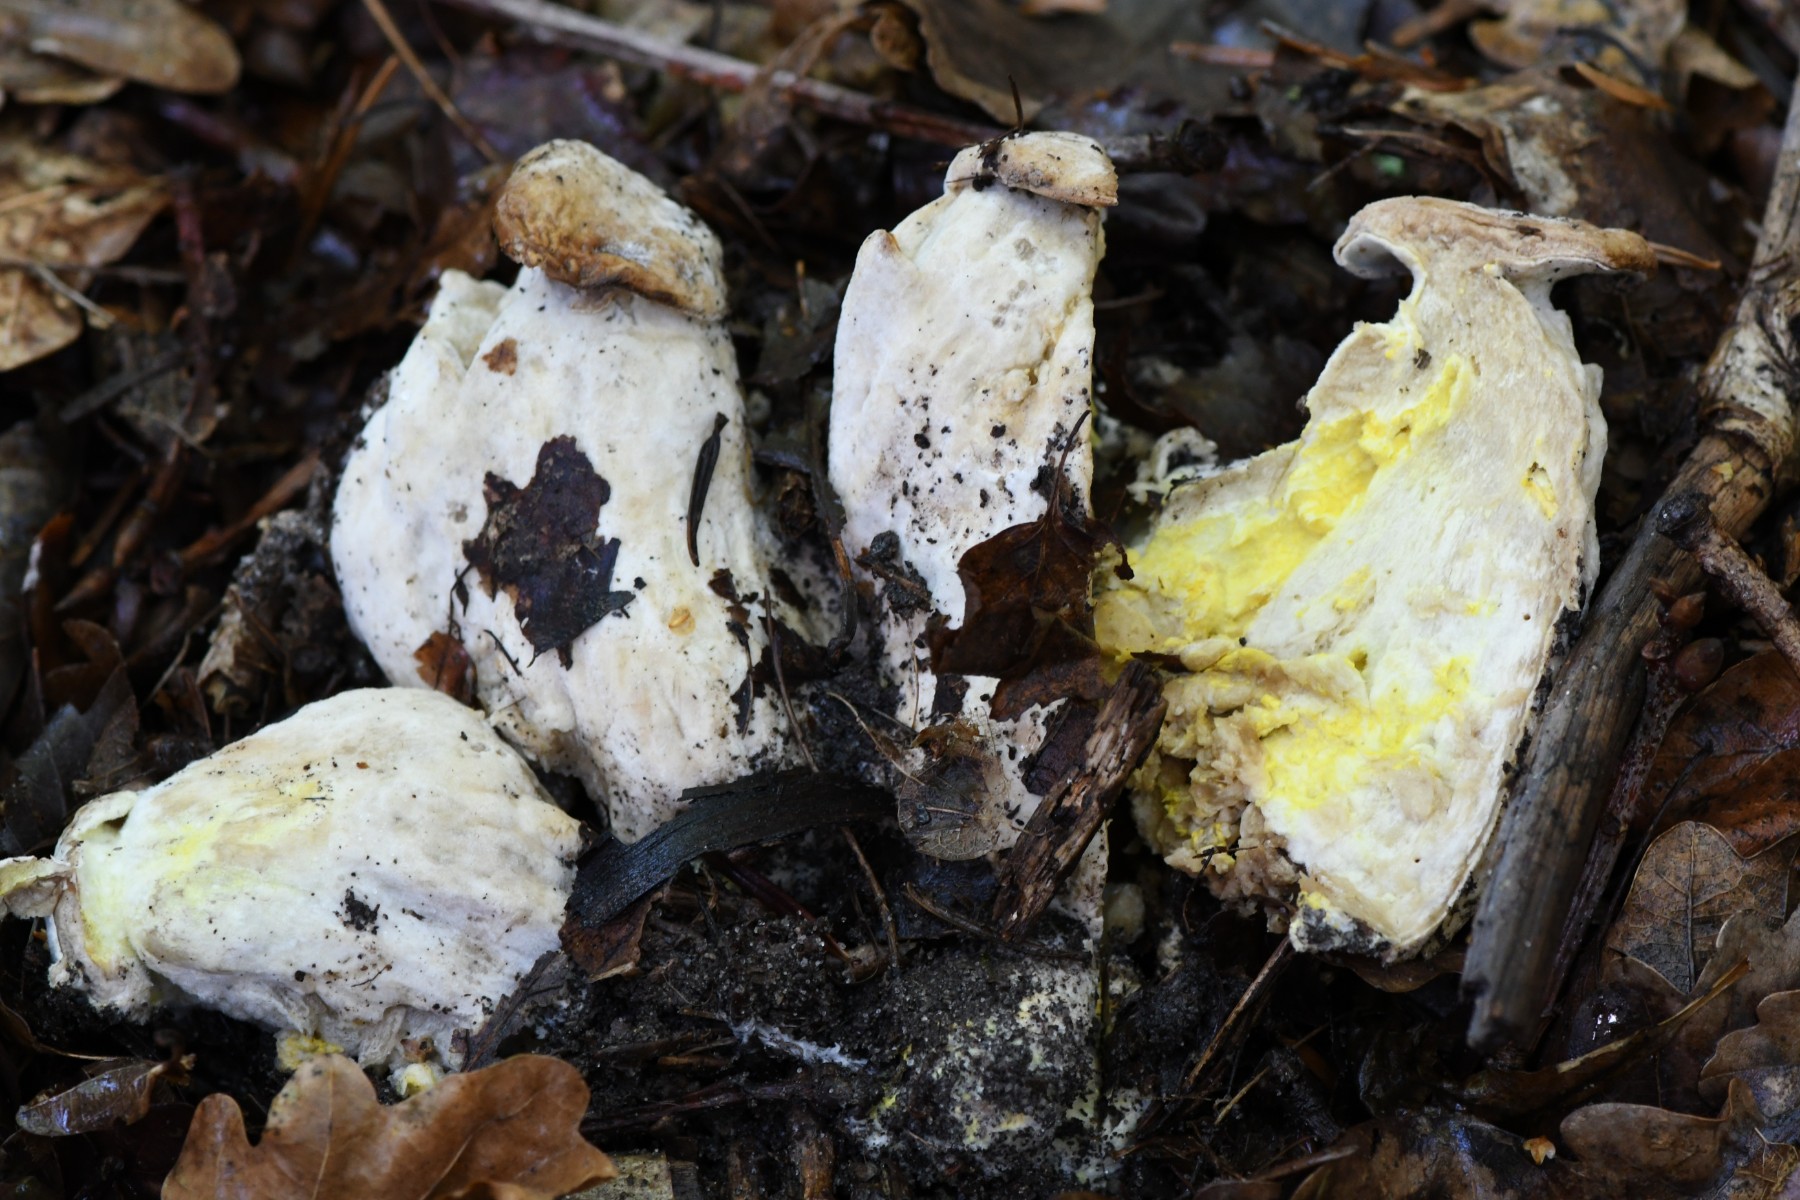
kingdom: Fungi
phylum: Ascomycota
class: Sordariomycetes
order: Hypocreales
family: Hypocreaceae
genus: Hypomyces
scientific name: Hypomyces chrysospermus
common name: gulskimmel-snylteskorpe
